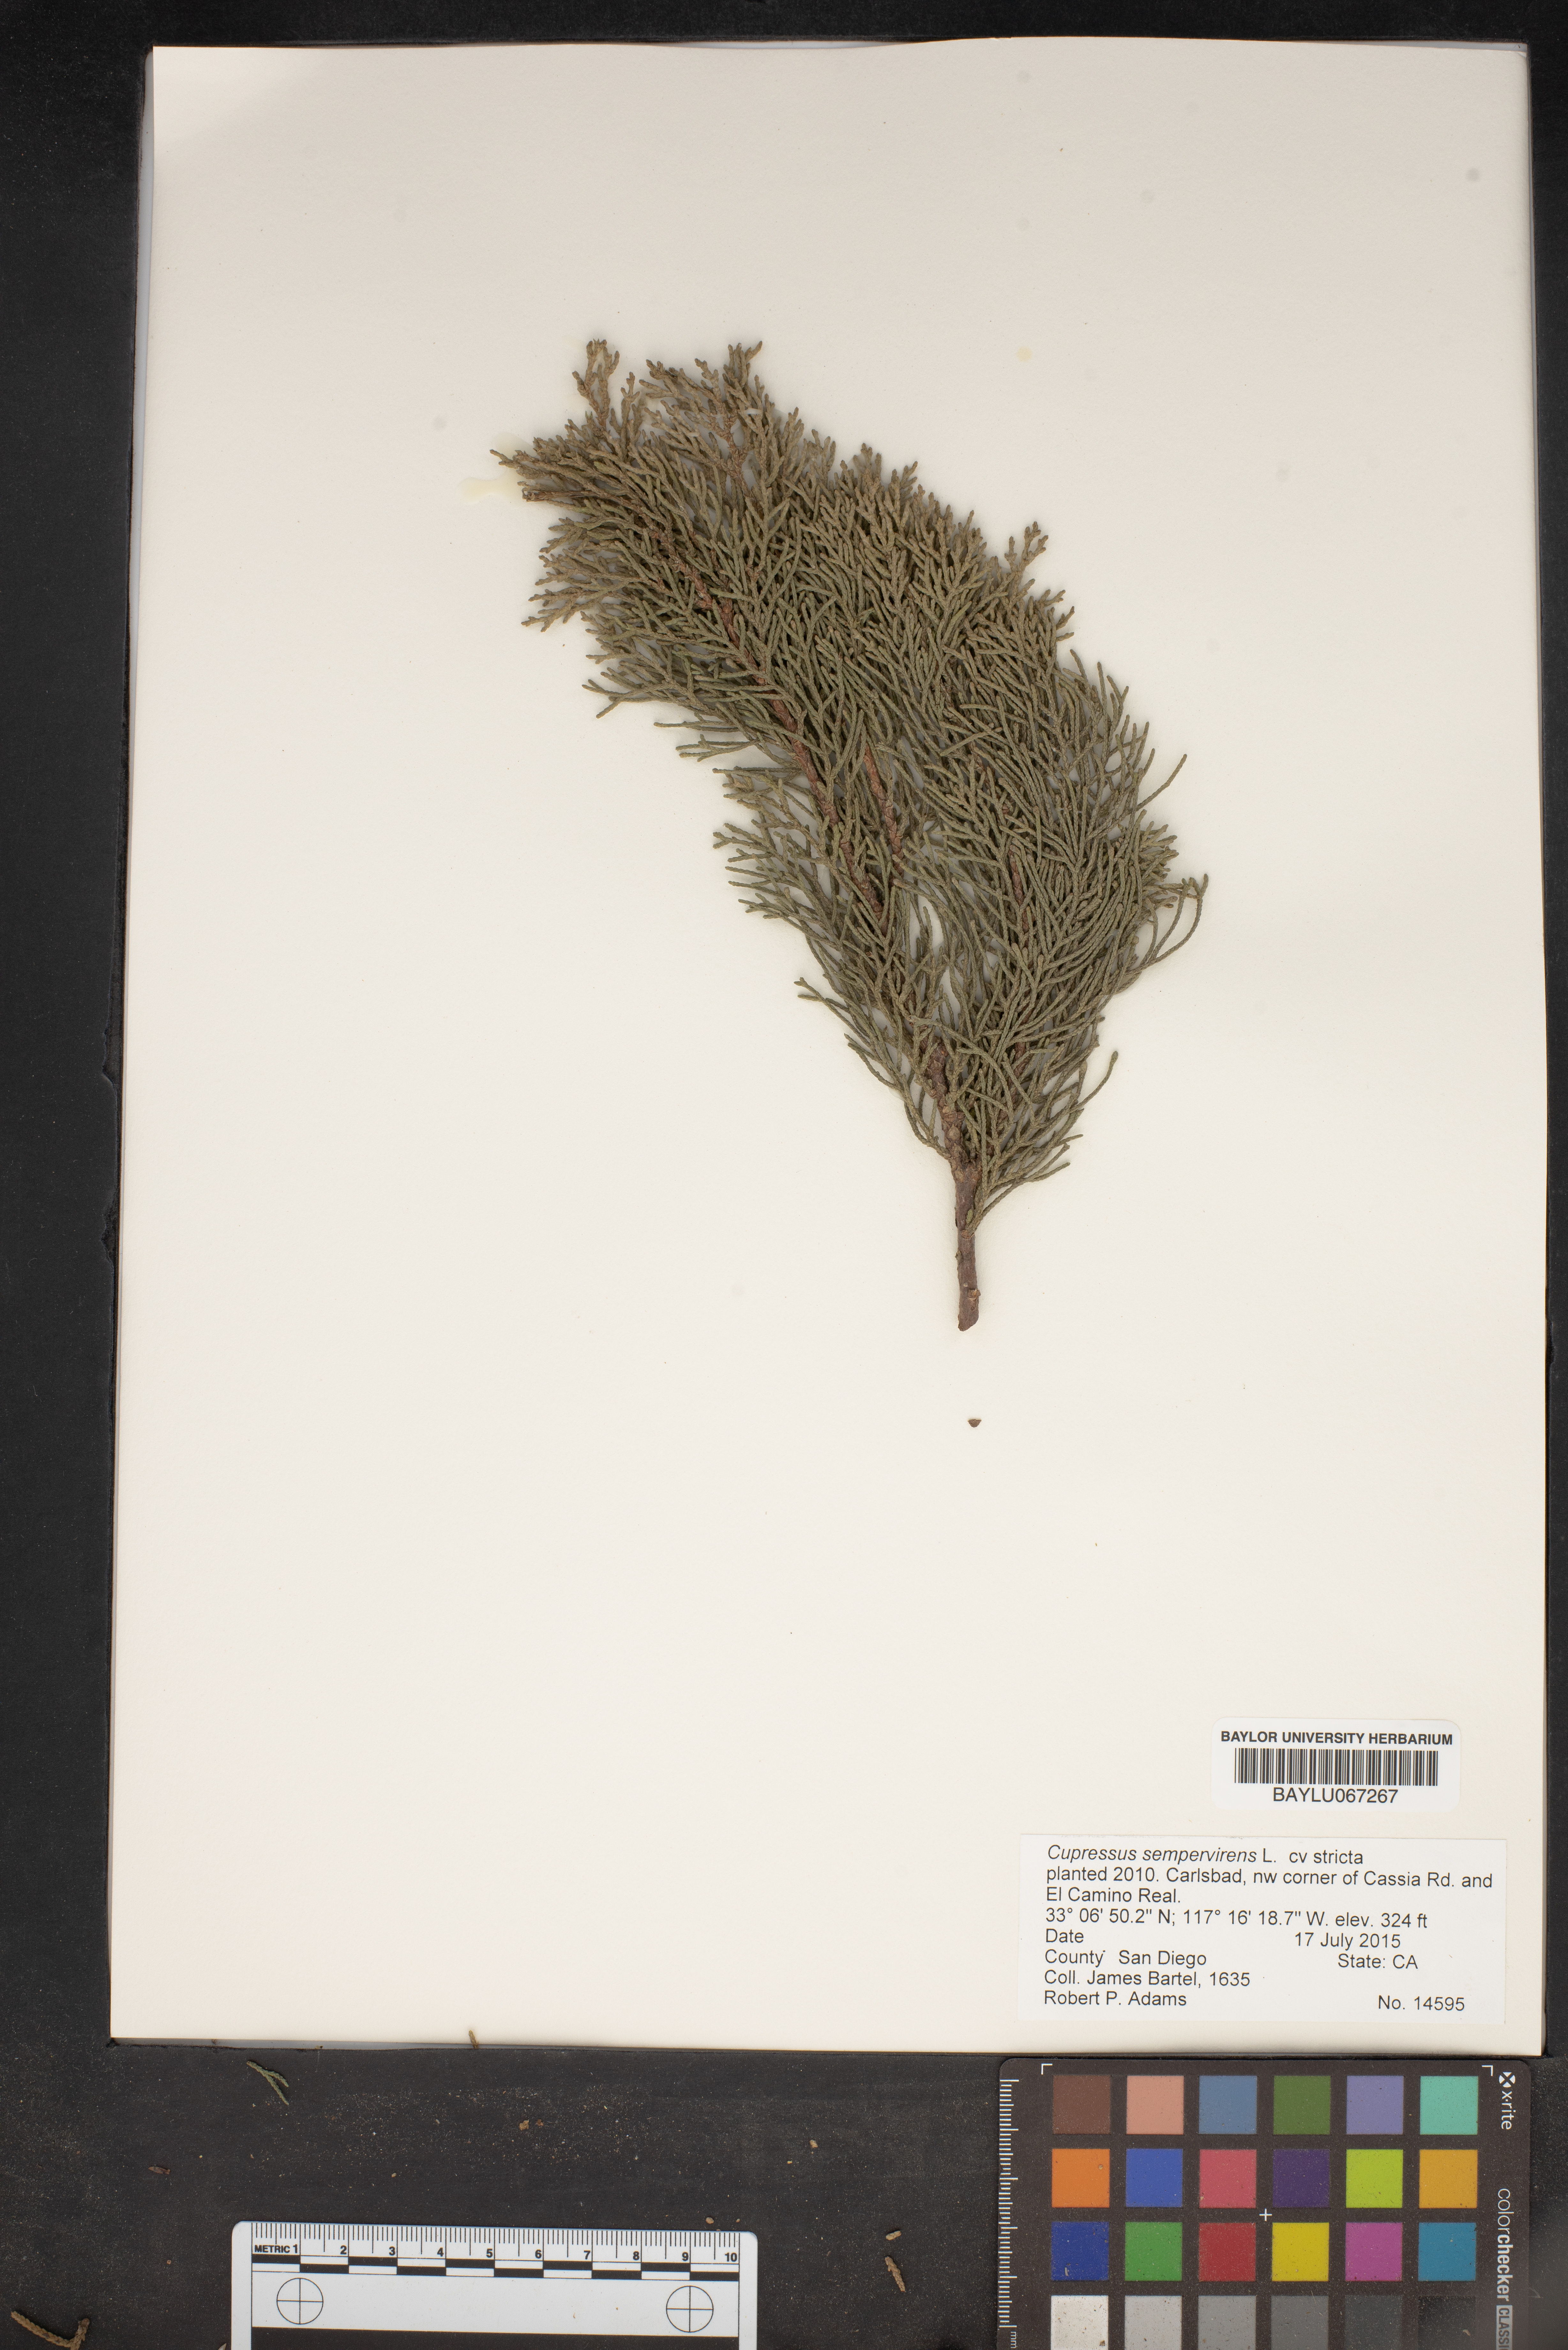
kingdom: Plantae
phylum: Tracheophyta
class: Pinopsida
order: Pinales
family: Cupressaceae
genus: Cupressus
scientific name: Cupressus sempervirens
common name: Italian cypress
